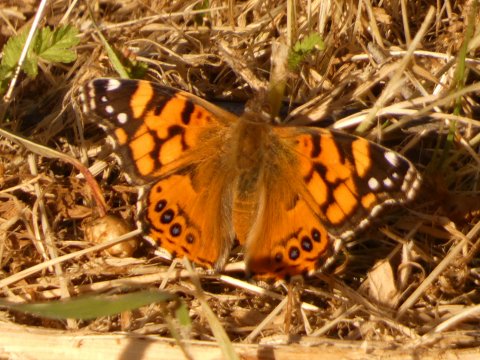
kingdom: Animalia
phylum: Arthropoda
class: Insecta
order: Lepidoptera
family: Nymphalidae
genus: Vanessa
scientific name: Vanessa annabella
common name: West Coast Lady
